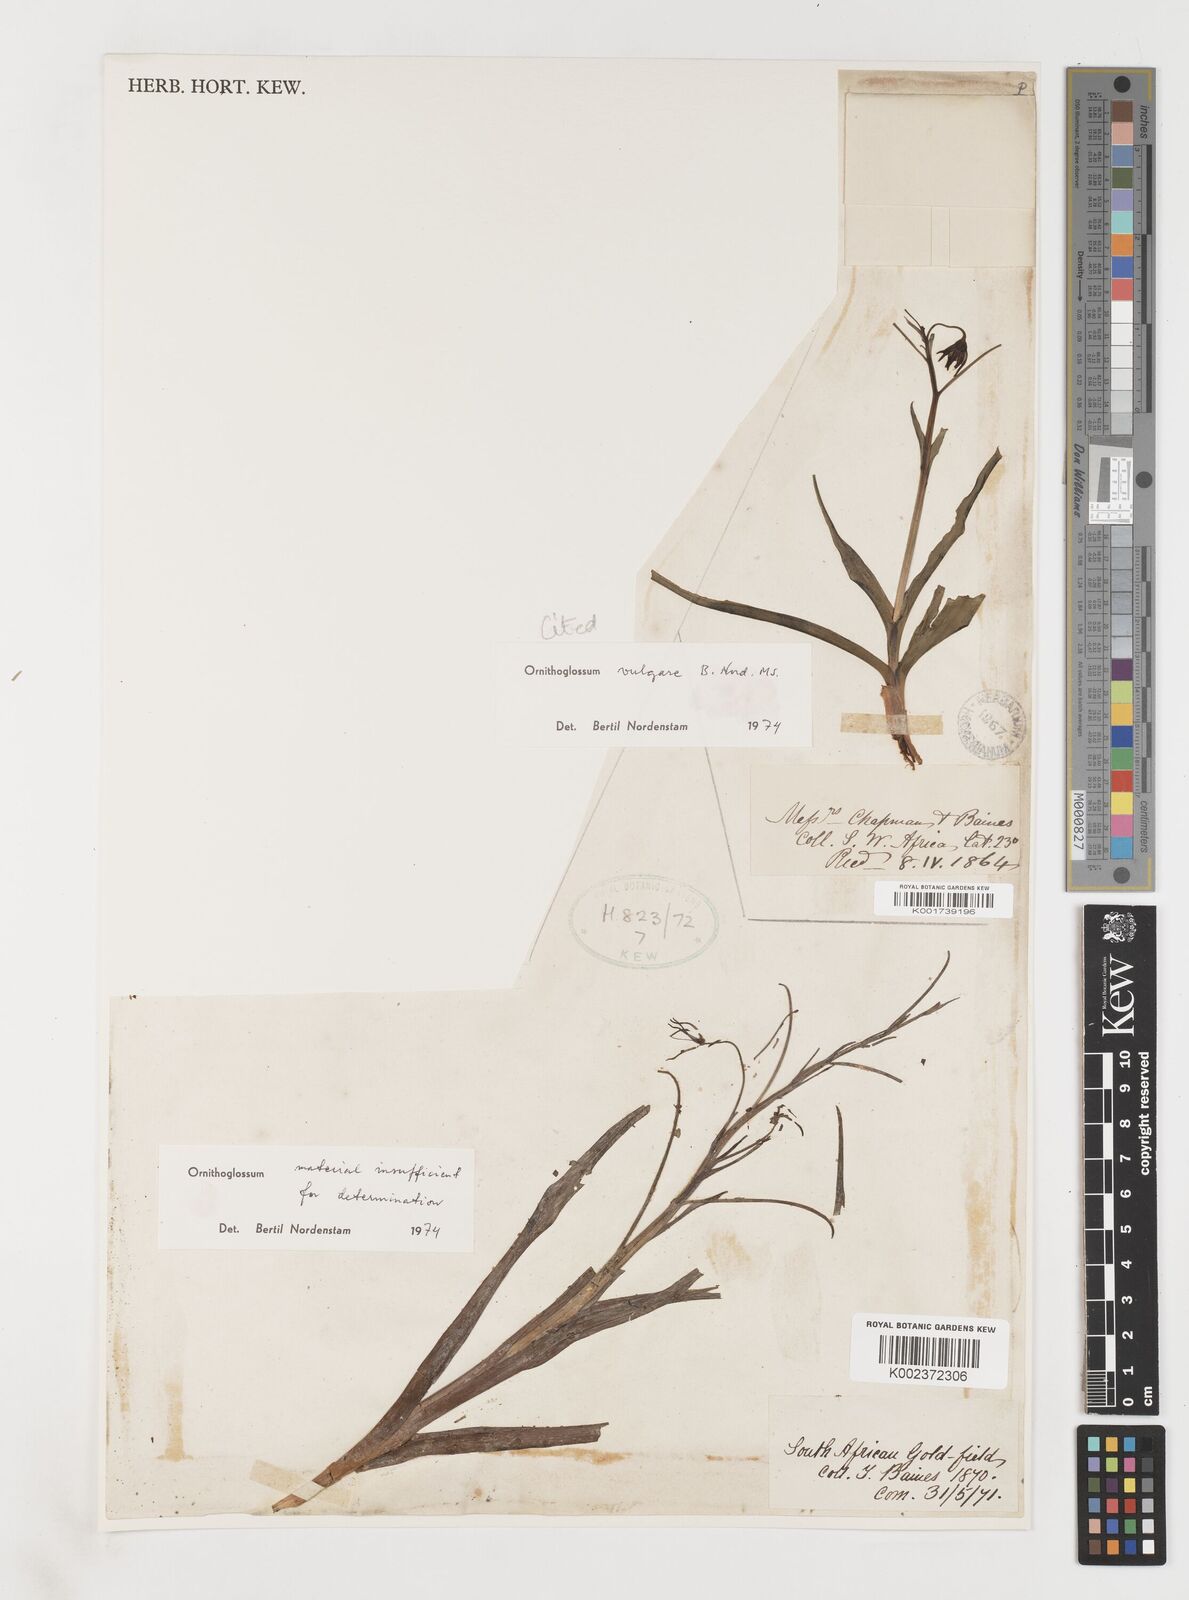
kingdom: Plantae
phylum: Tracheophyta
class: Liliopsida
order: Liliales
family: Colchicaceae
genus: Ornithoglossum
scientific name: Ornithoglossum vulgare
